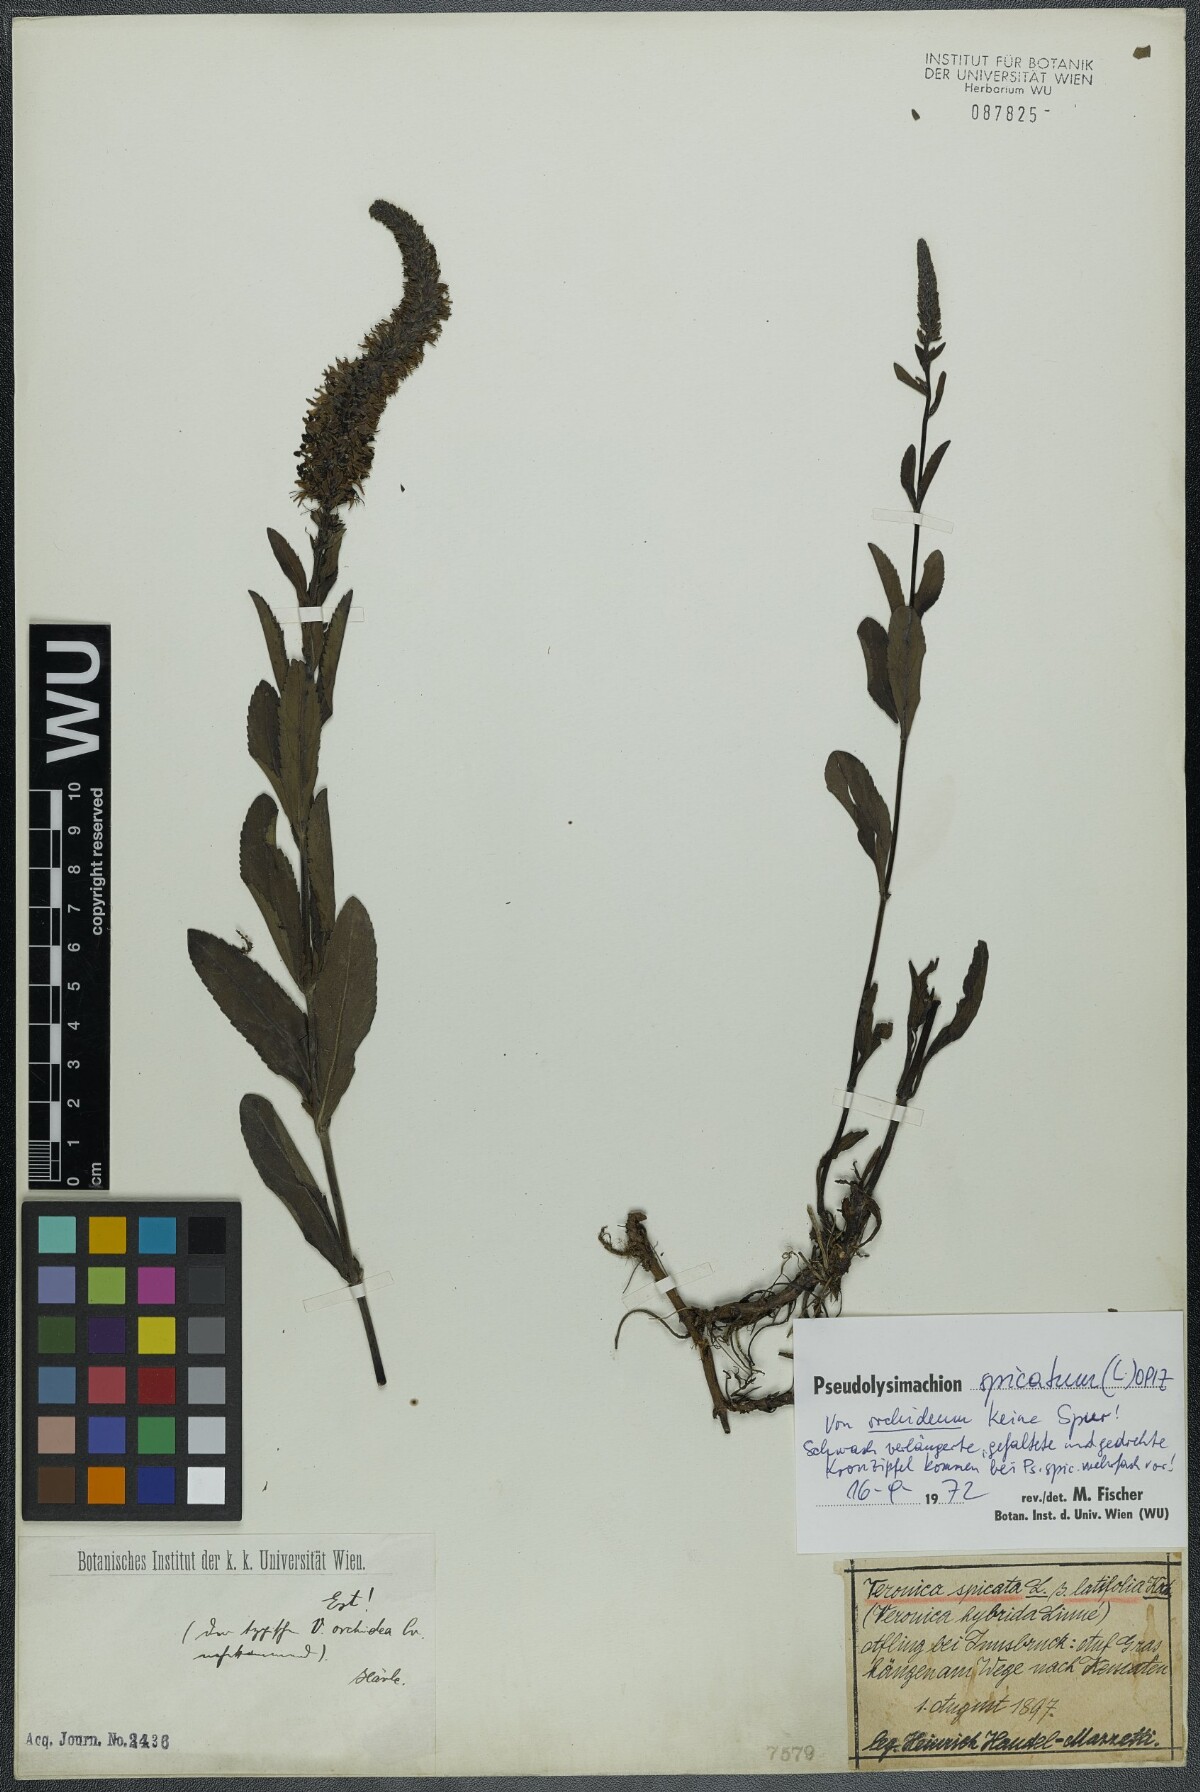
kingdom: Plantae
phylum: Tracheophyta
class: Magnoliopsida
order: Lamiales
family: Plantaginaceae
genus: Veronica
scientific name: Veronica spicata
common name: Spiked speedwell
